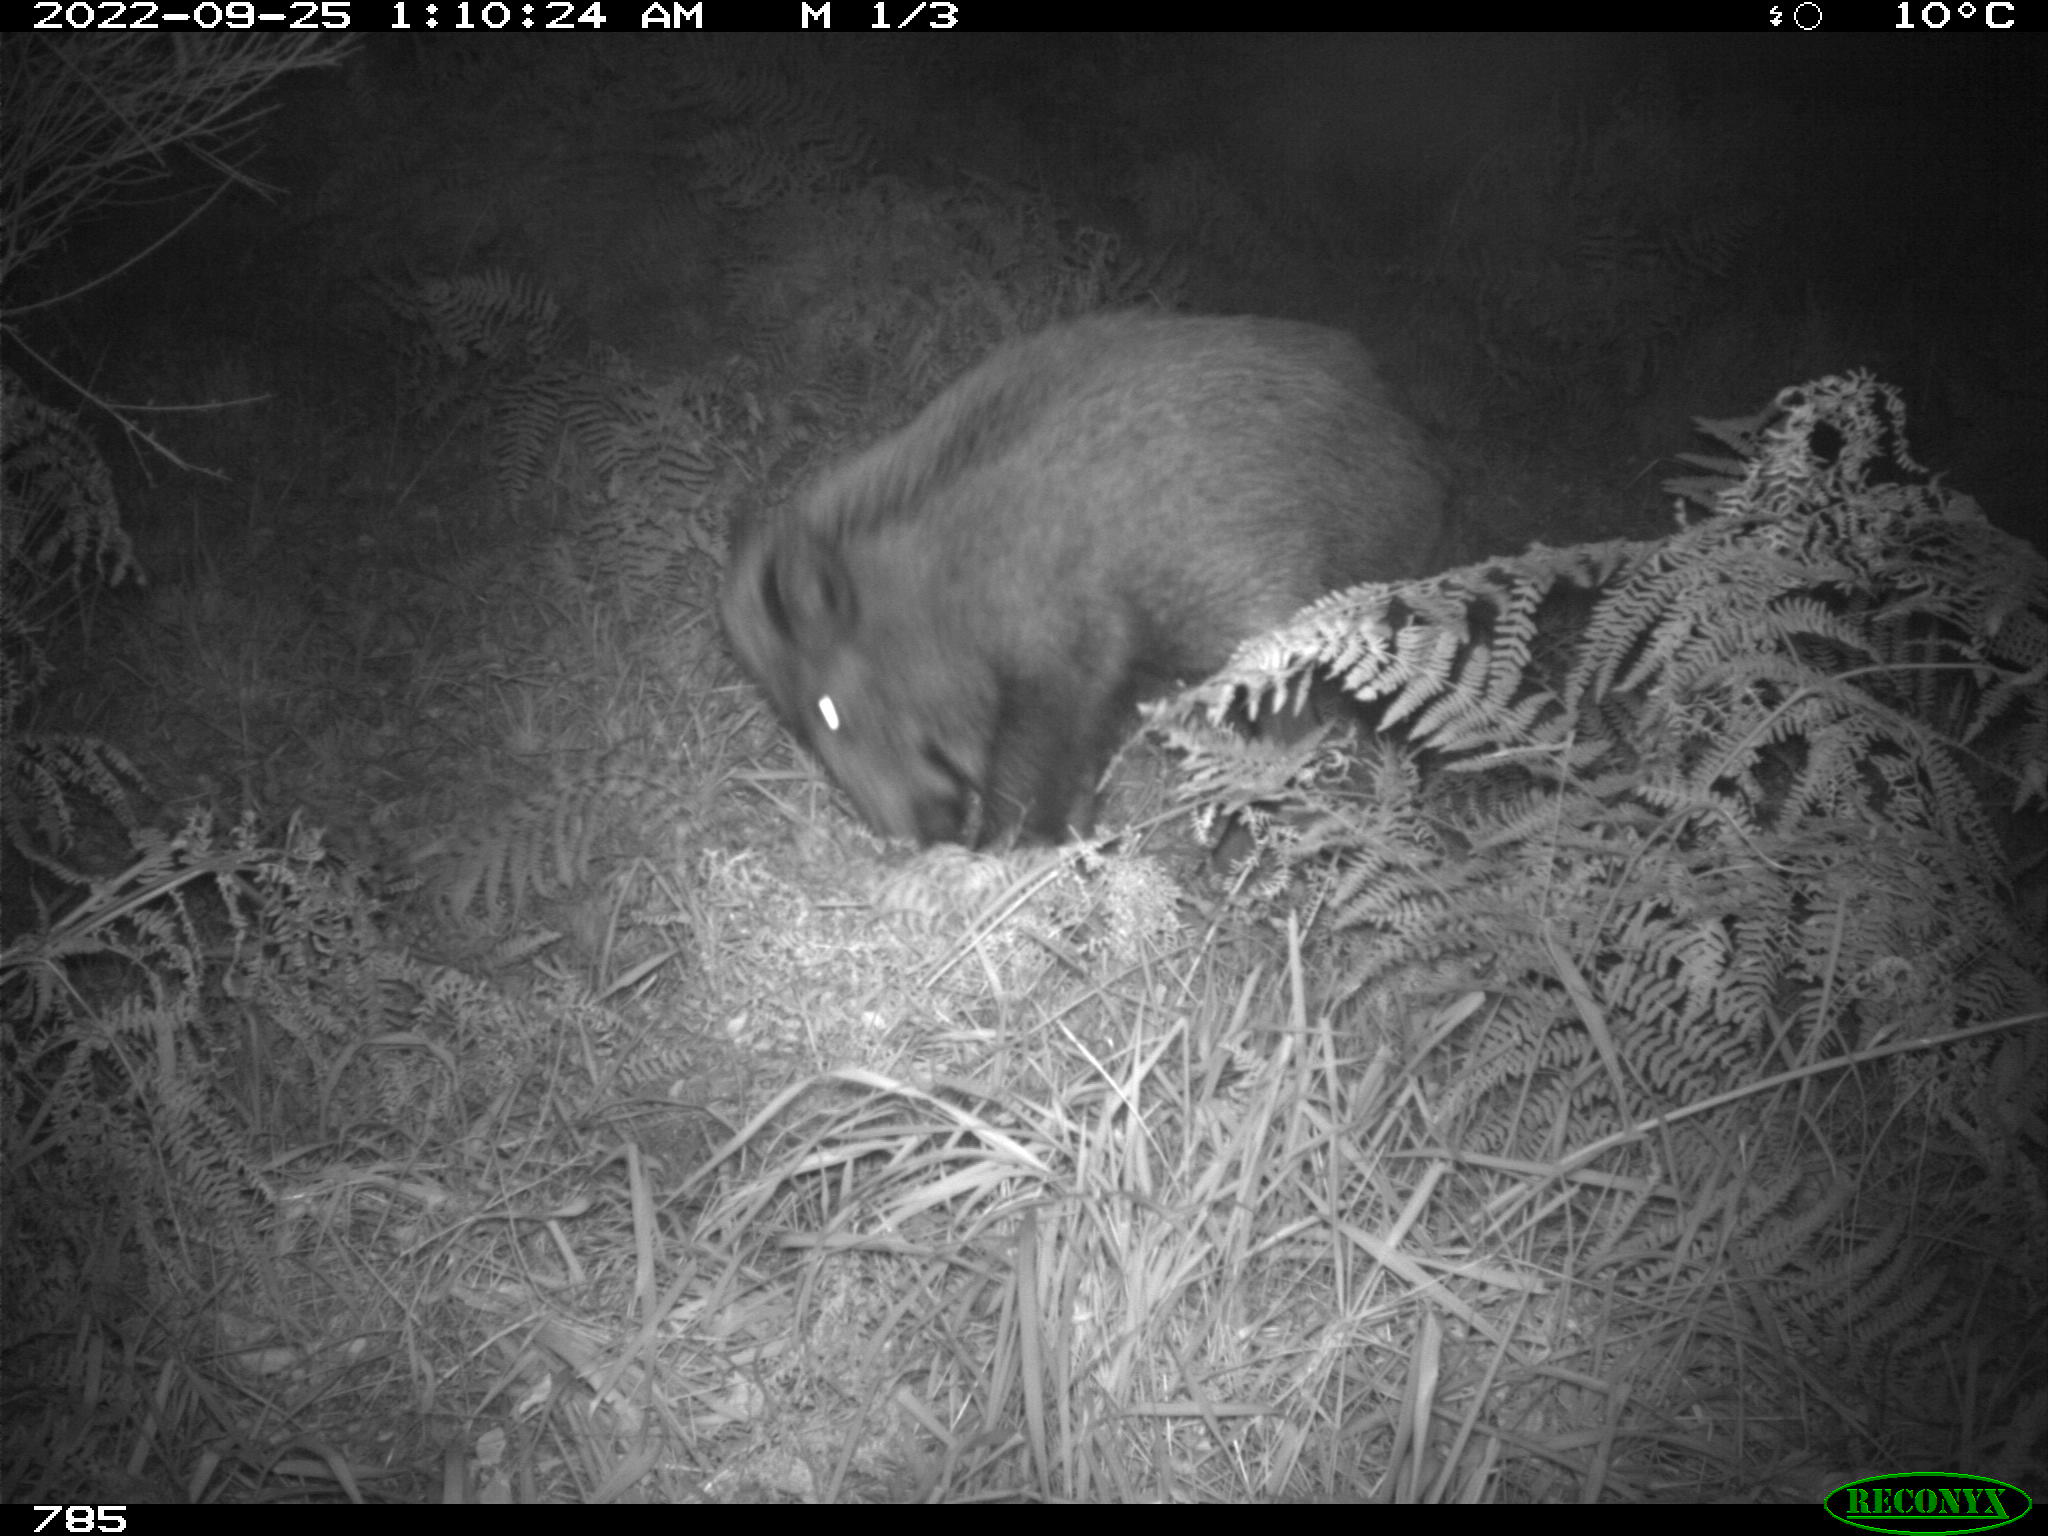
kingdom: Animalia
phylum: Chordata
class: Mammalia
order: Artiodactyla
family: Suidae
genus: Sus
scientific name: Sus scrofa
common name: Wild boar
